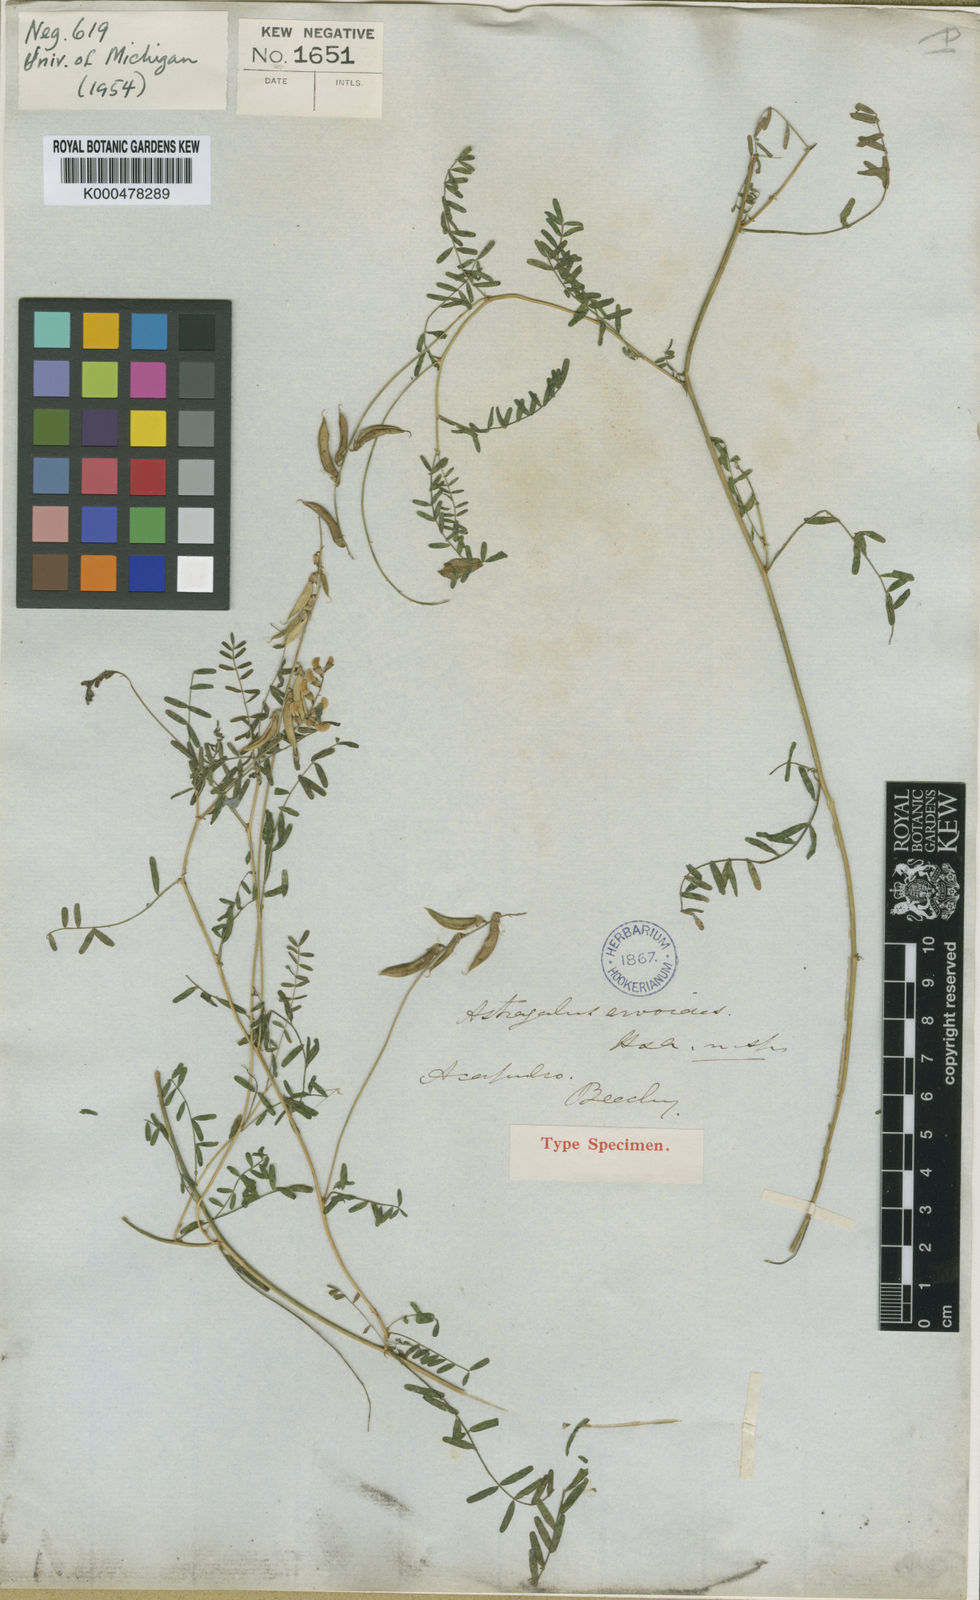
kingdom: Plantae
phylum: Tracheophyta
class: Magnoliopsida
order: Fabales
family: Fabaceae
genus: Astragalus
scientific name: Astragalus ervoides
